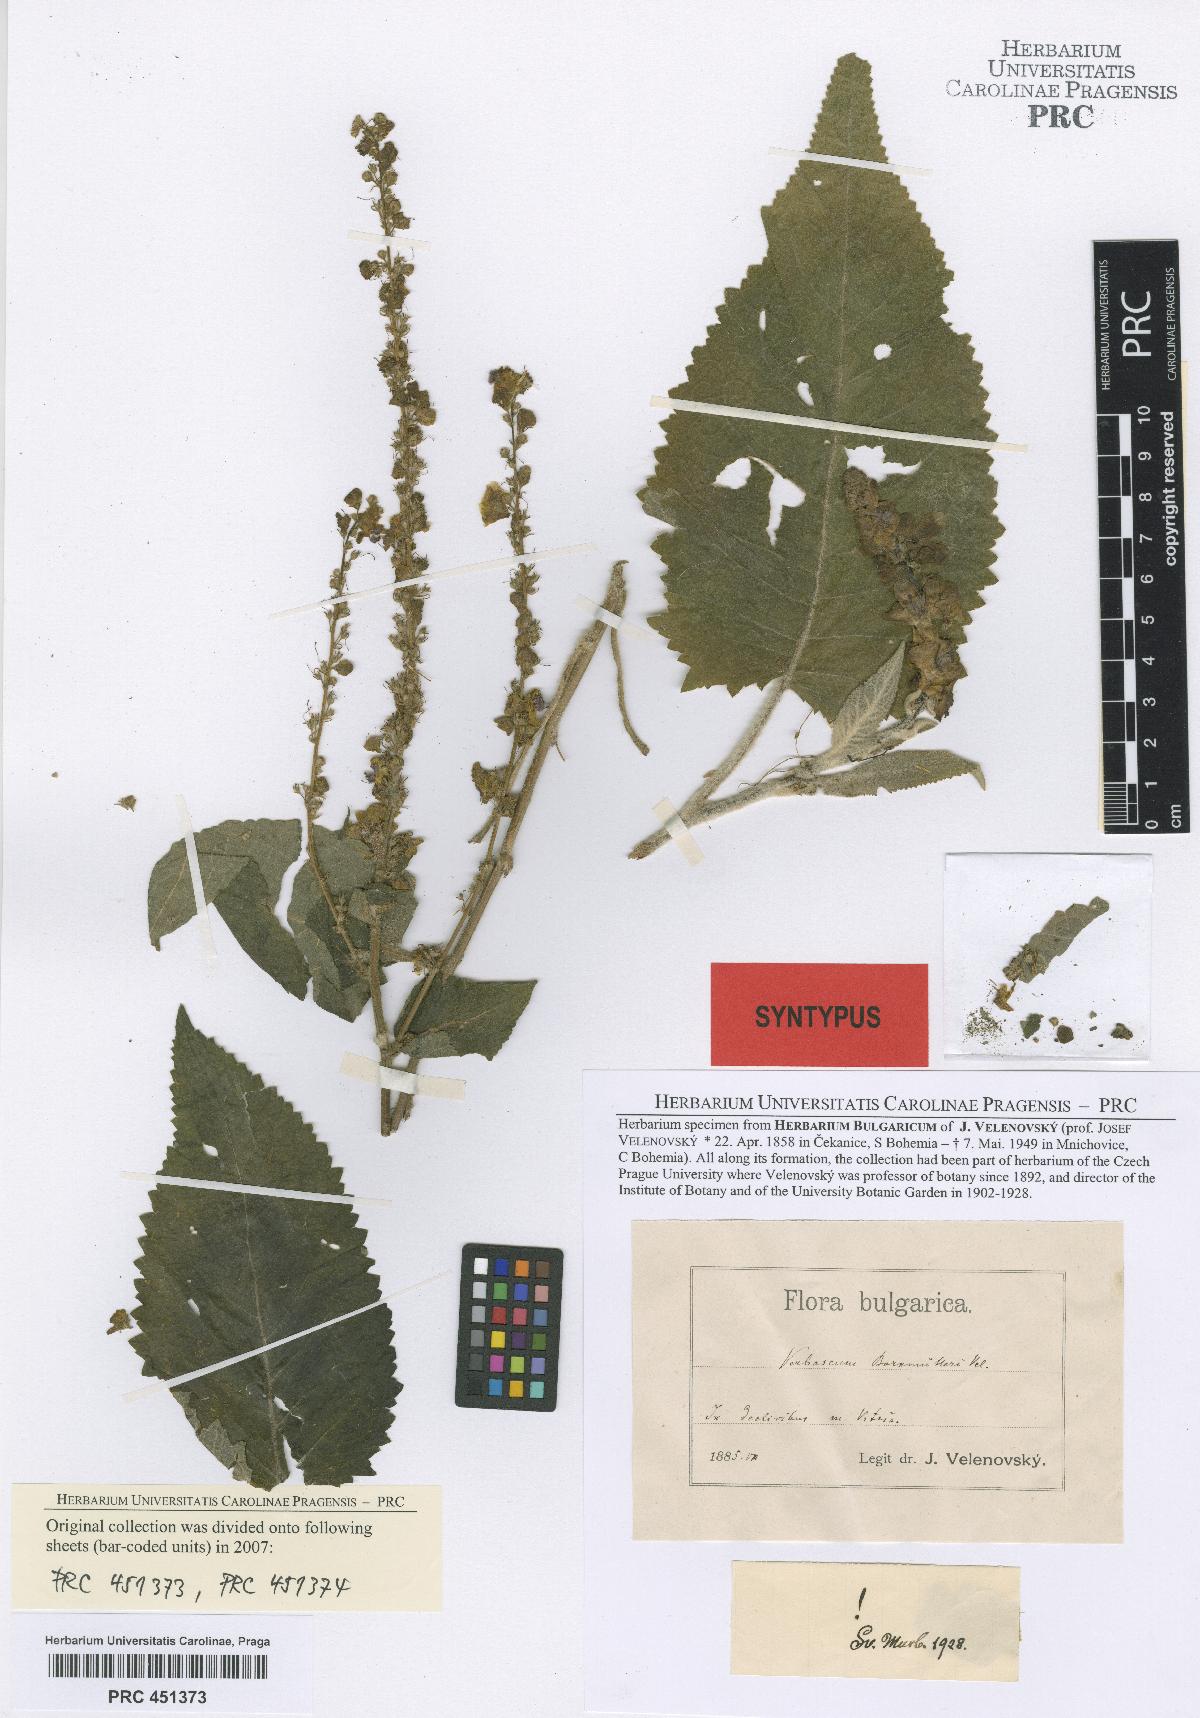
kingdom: Plantae
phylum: Tracheophyta
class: Magnoliopsida
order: Lamiales
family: Scrophulariaceae
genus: Verbascum
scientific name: Verbascum nigrum
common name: Dark mullein
